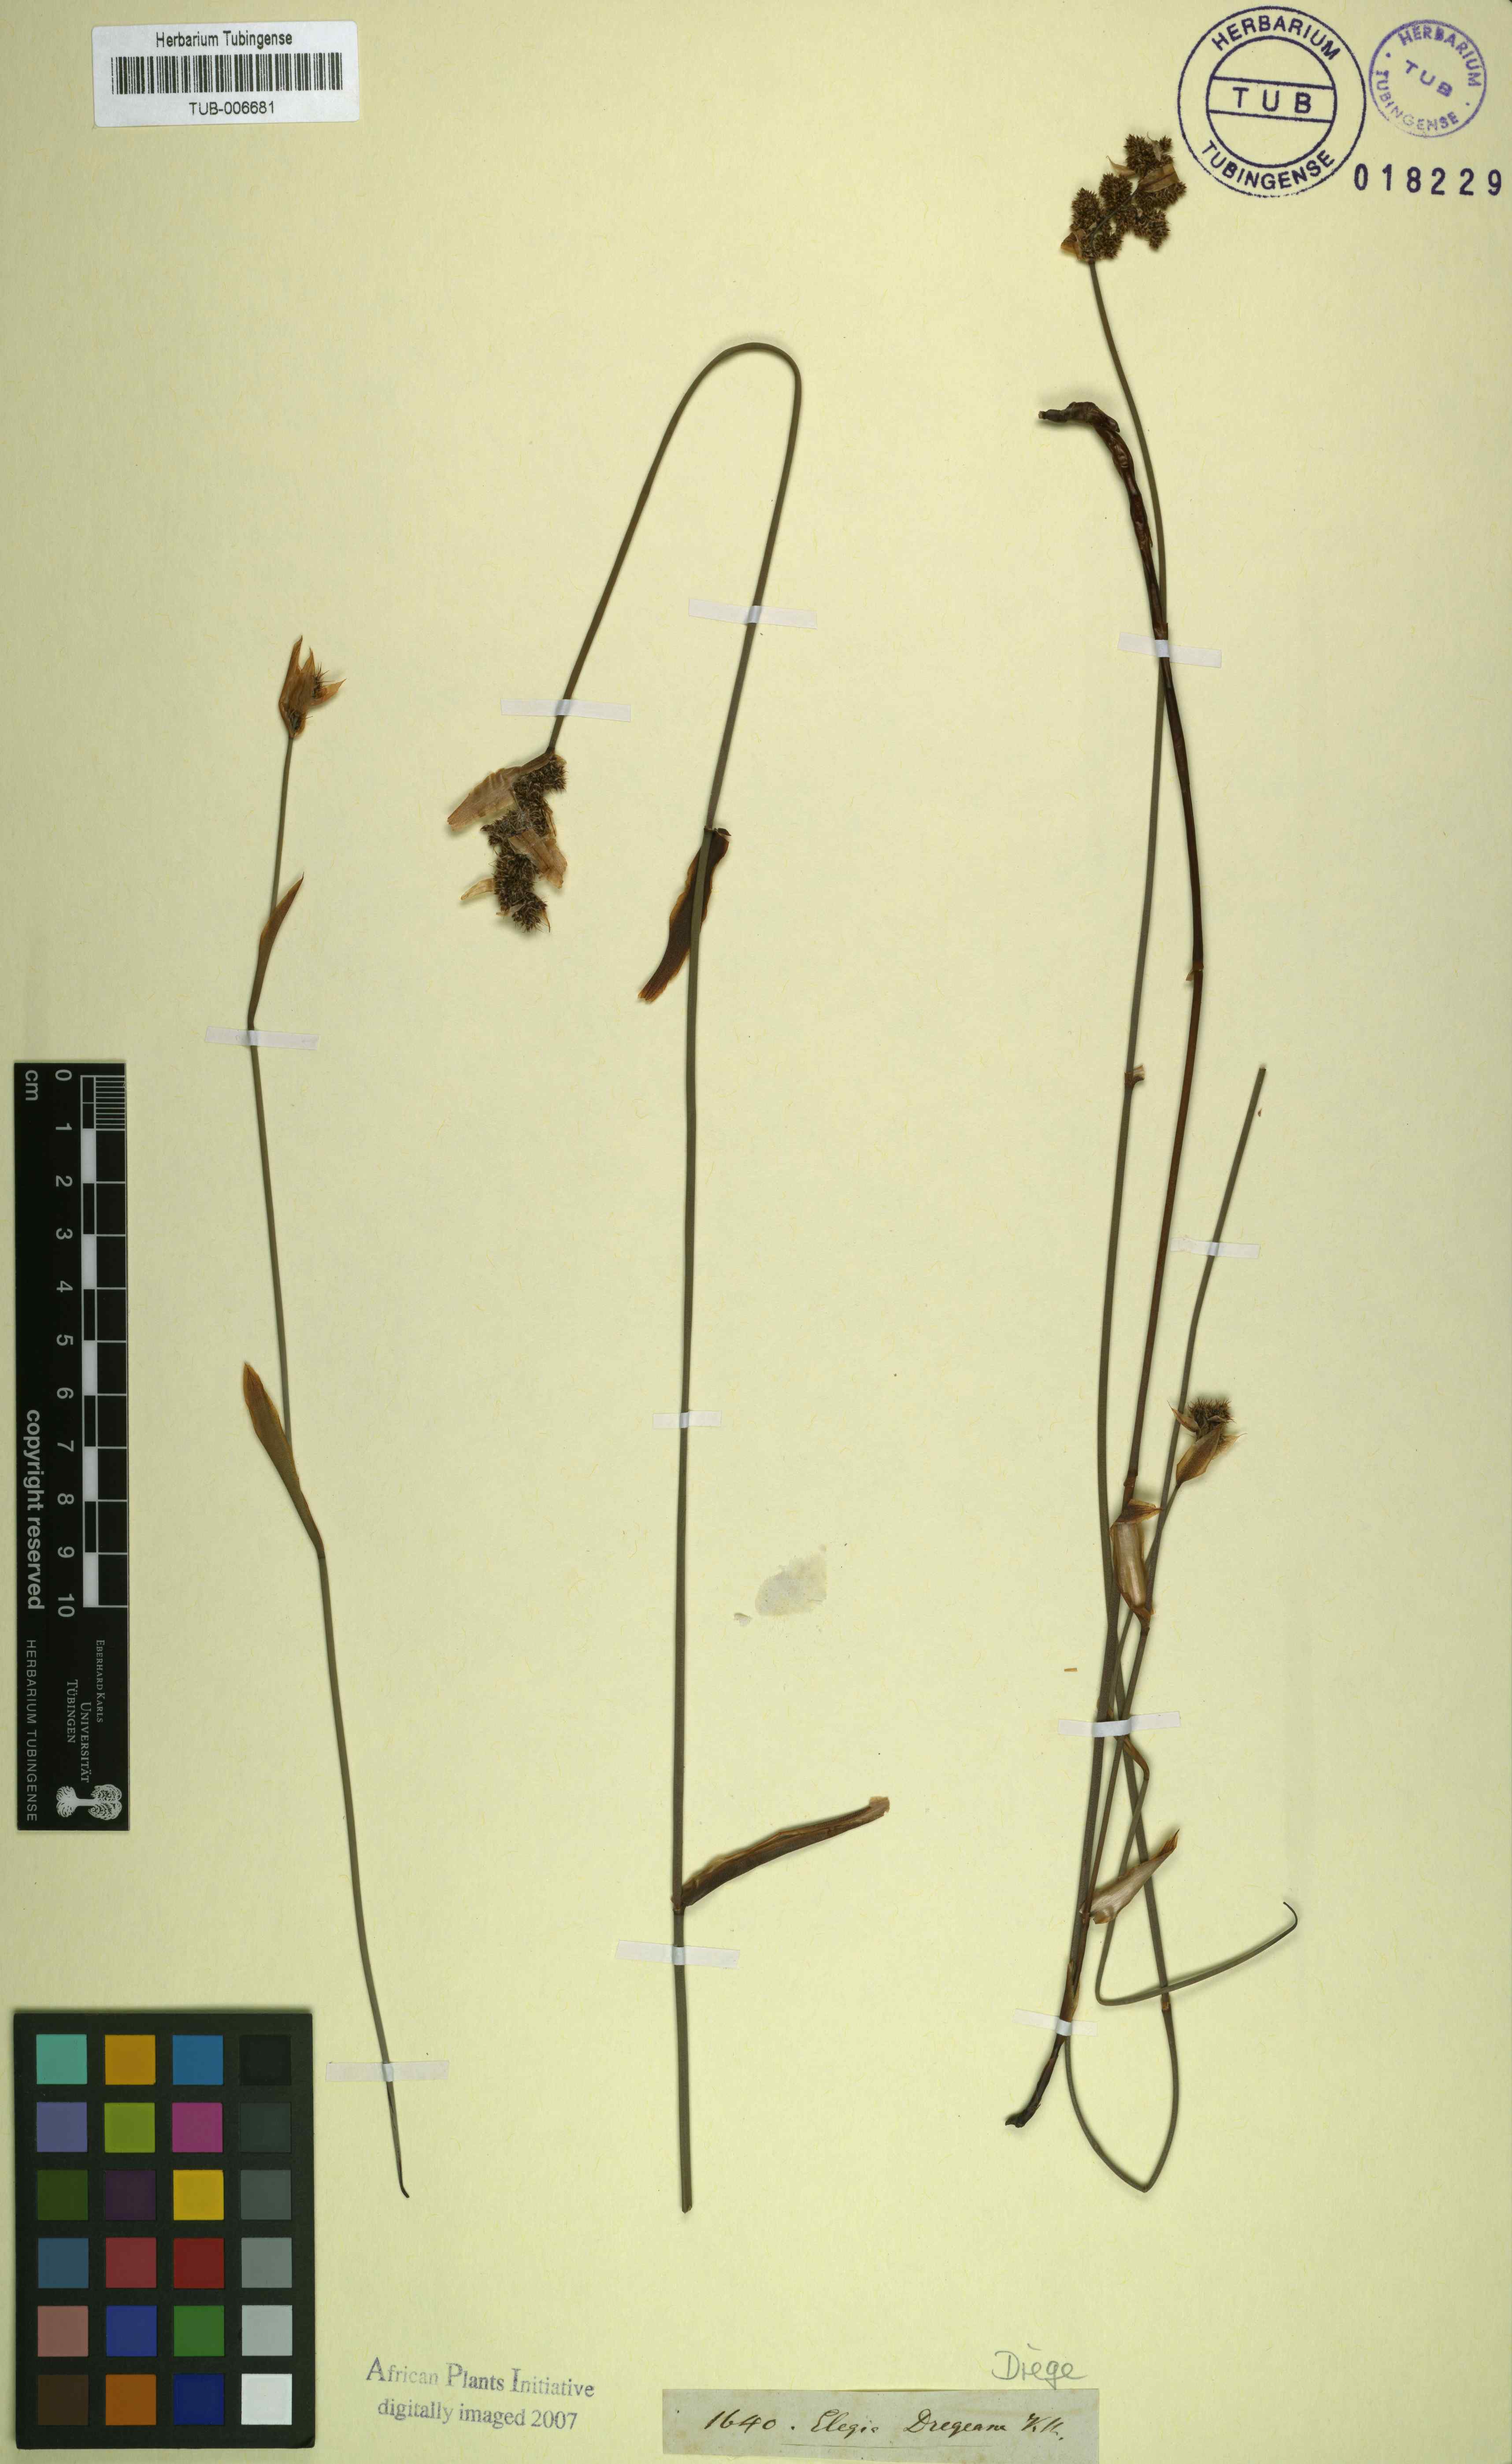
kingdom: Plantae
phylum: Tracheophyta
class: Liliopsida
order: Poales
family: Restionaceae
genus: Elegia
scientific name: Elegia asperiflora
